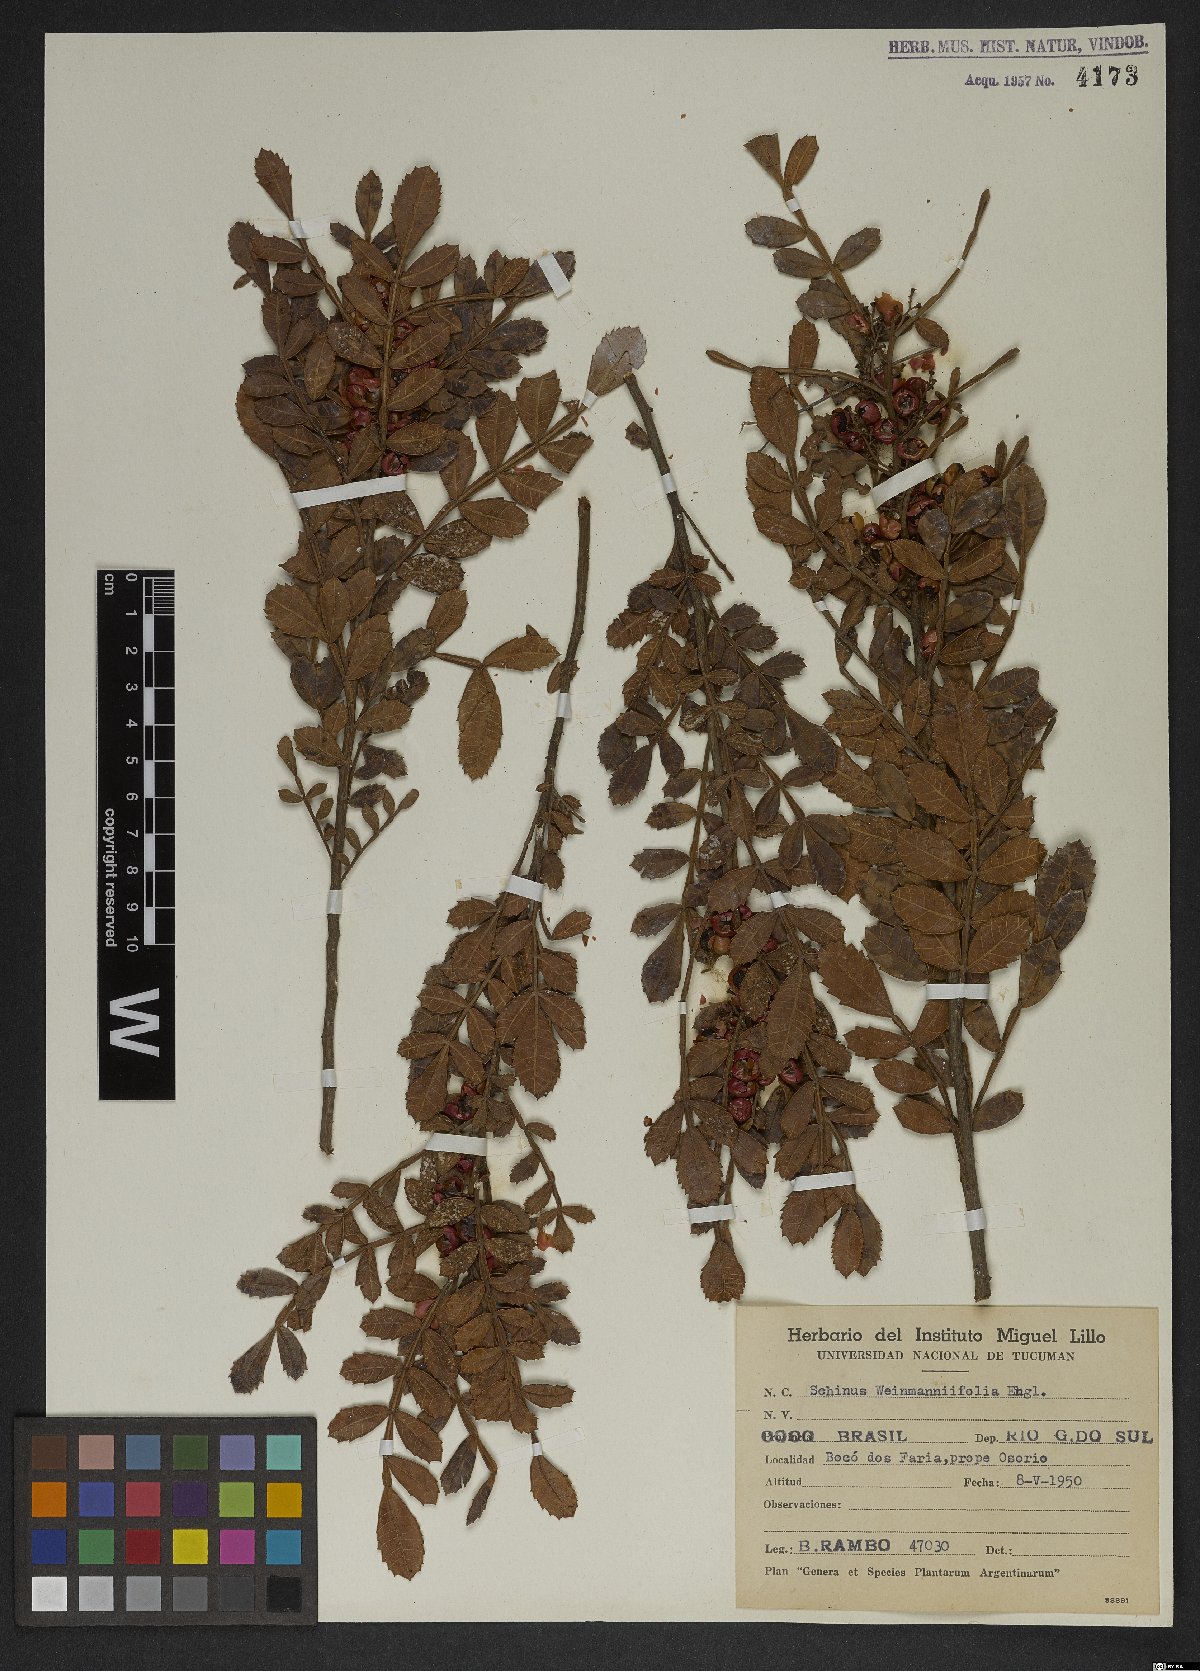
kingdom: Plantae
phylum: Tracheophyta
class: Magnoliopsida
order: Sapindales
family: Anacardiaceae
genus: Schinus
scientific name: Schinus weinmanniifolia
